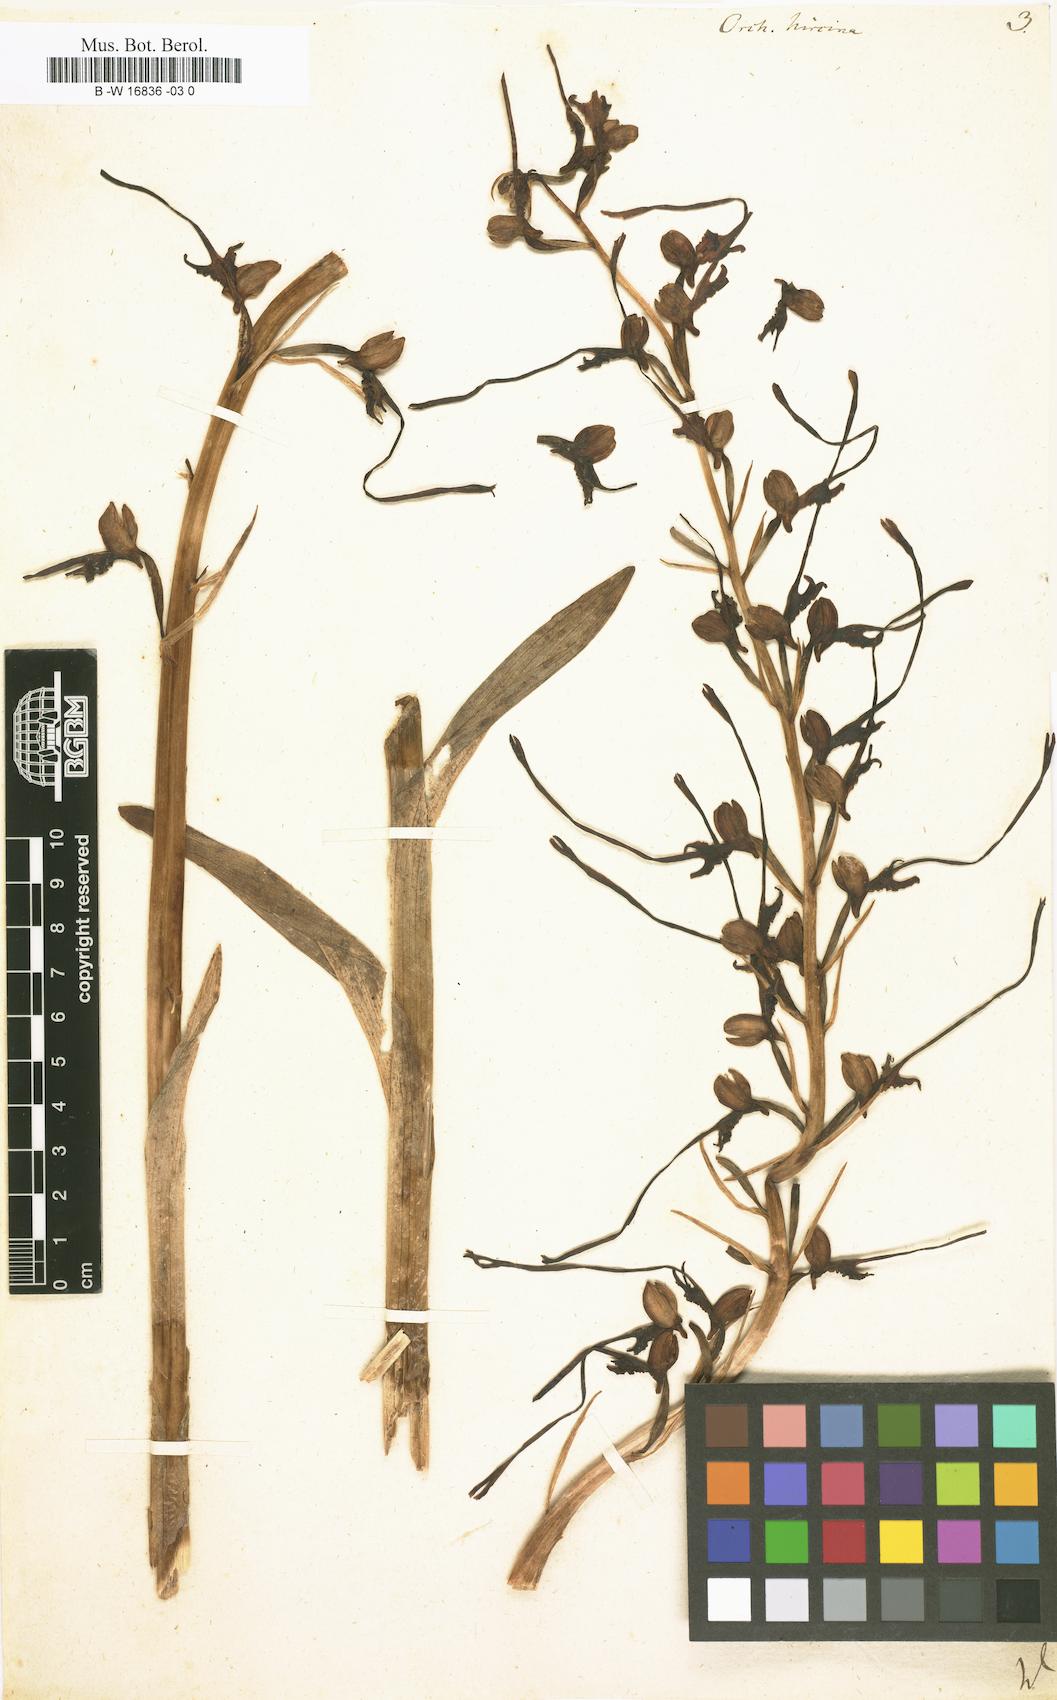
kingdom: Plantae
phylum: Tracheophyta
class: Liliopsida
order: Asparagales
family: Orchidaceae
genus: Himantoglossum
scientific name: Himantoglossum hircinum
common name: Lizard orchid
